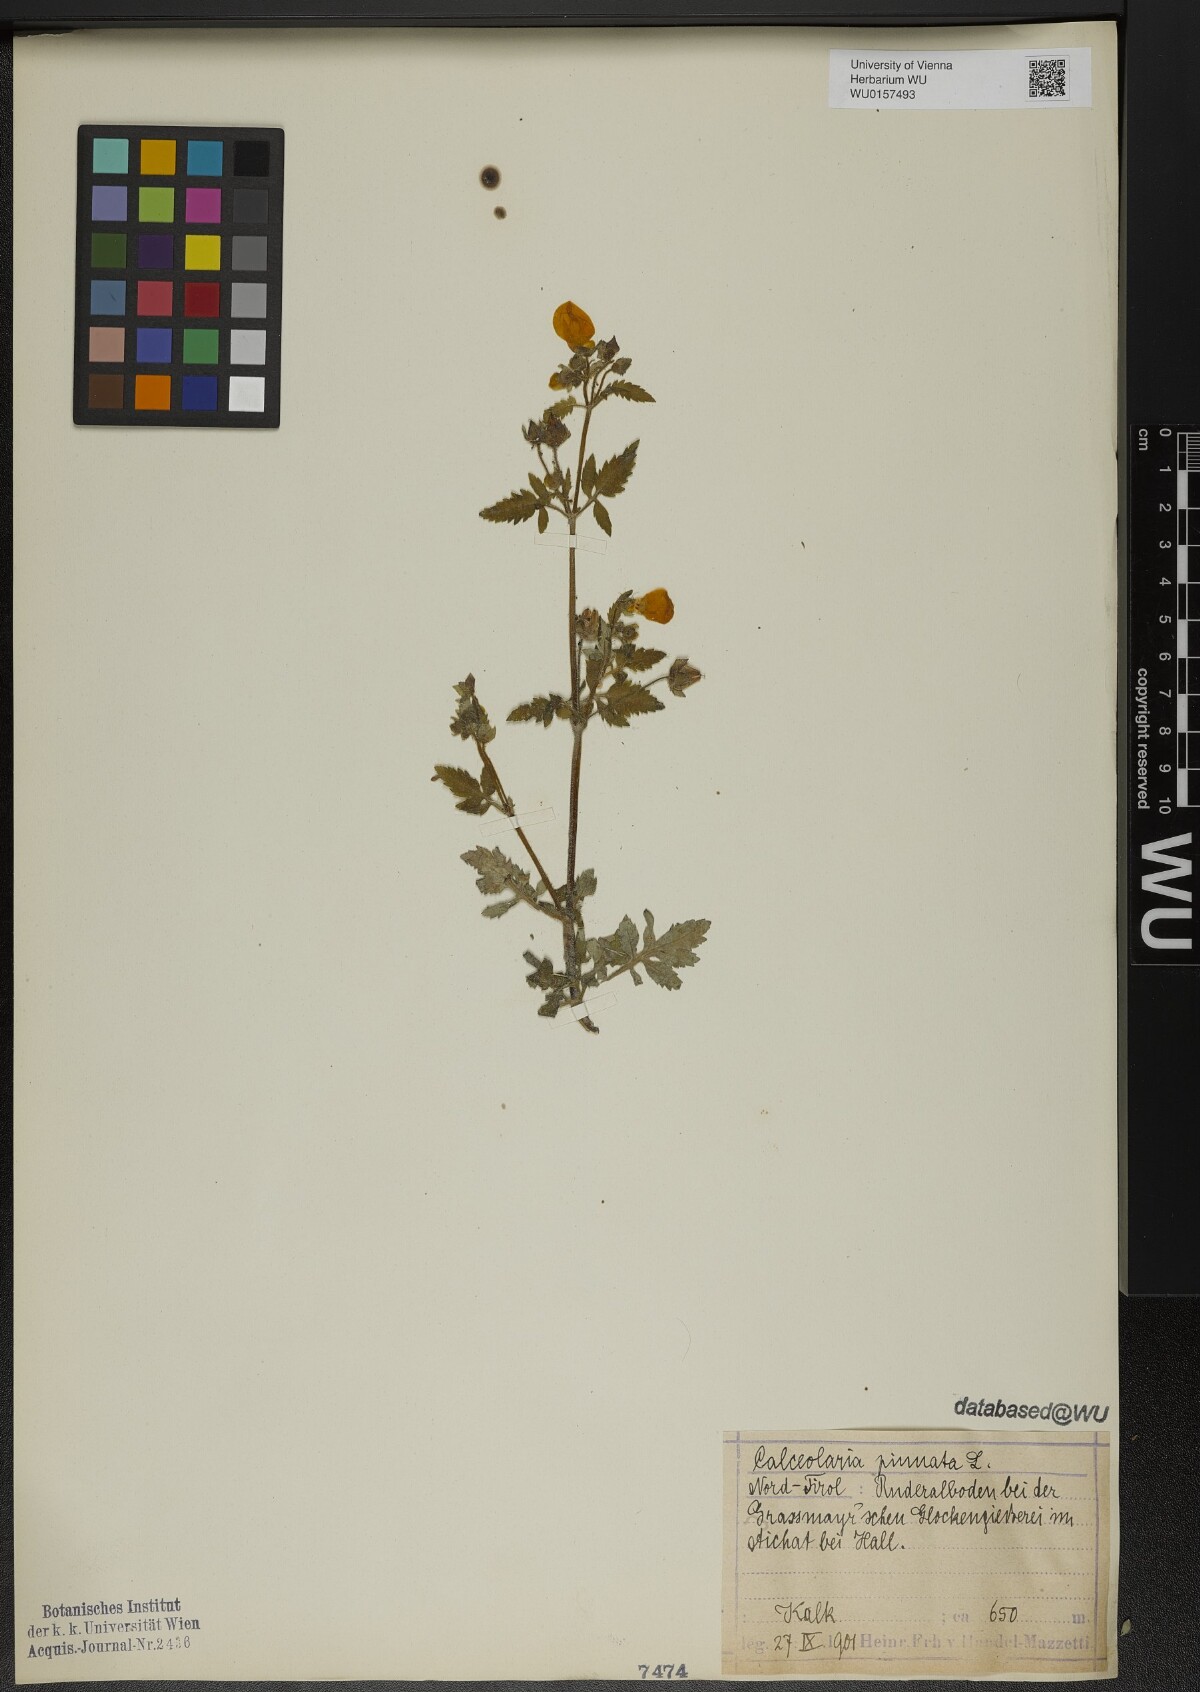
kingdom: Plantae
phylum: Tracheophyta
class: Magnoliopsida
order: Lamiales
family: Calceolariaceae
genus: Calceolaria
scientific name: Calceolaria pinnata
